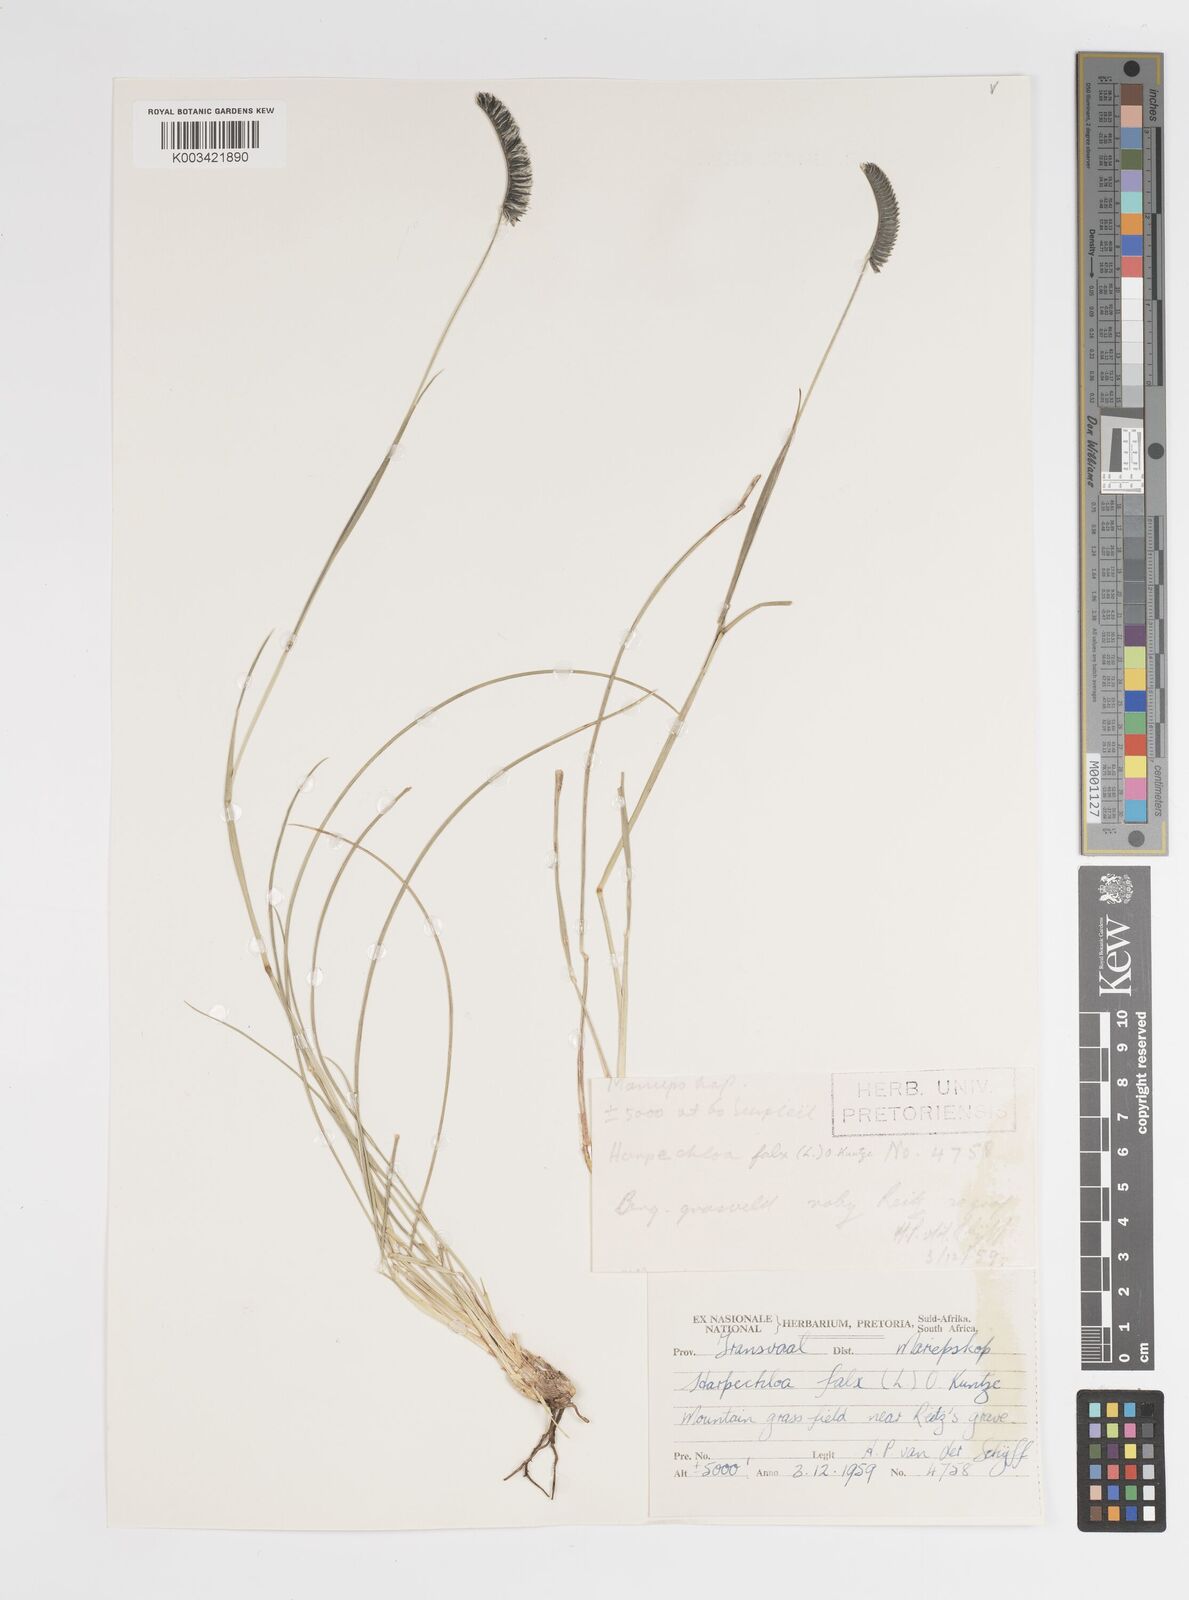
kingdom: Plantae
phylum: Tracheophyta
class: Liliopsida
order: Poales
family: Poaceae
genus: Harpochloa
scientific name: Harpochloa falx
